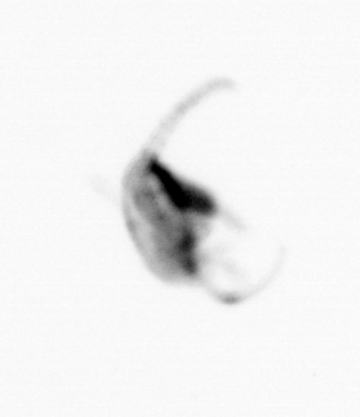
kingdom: Animalia
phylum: Arthropoda
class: Copepoda
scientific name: Copepoda
